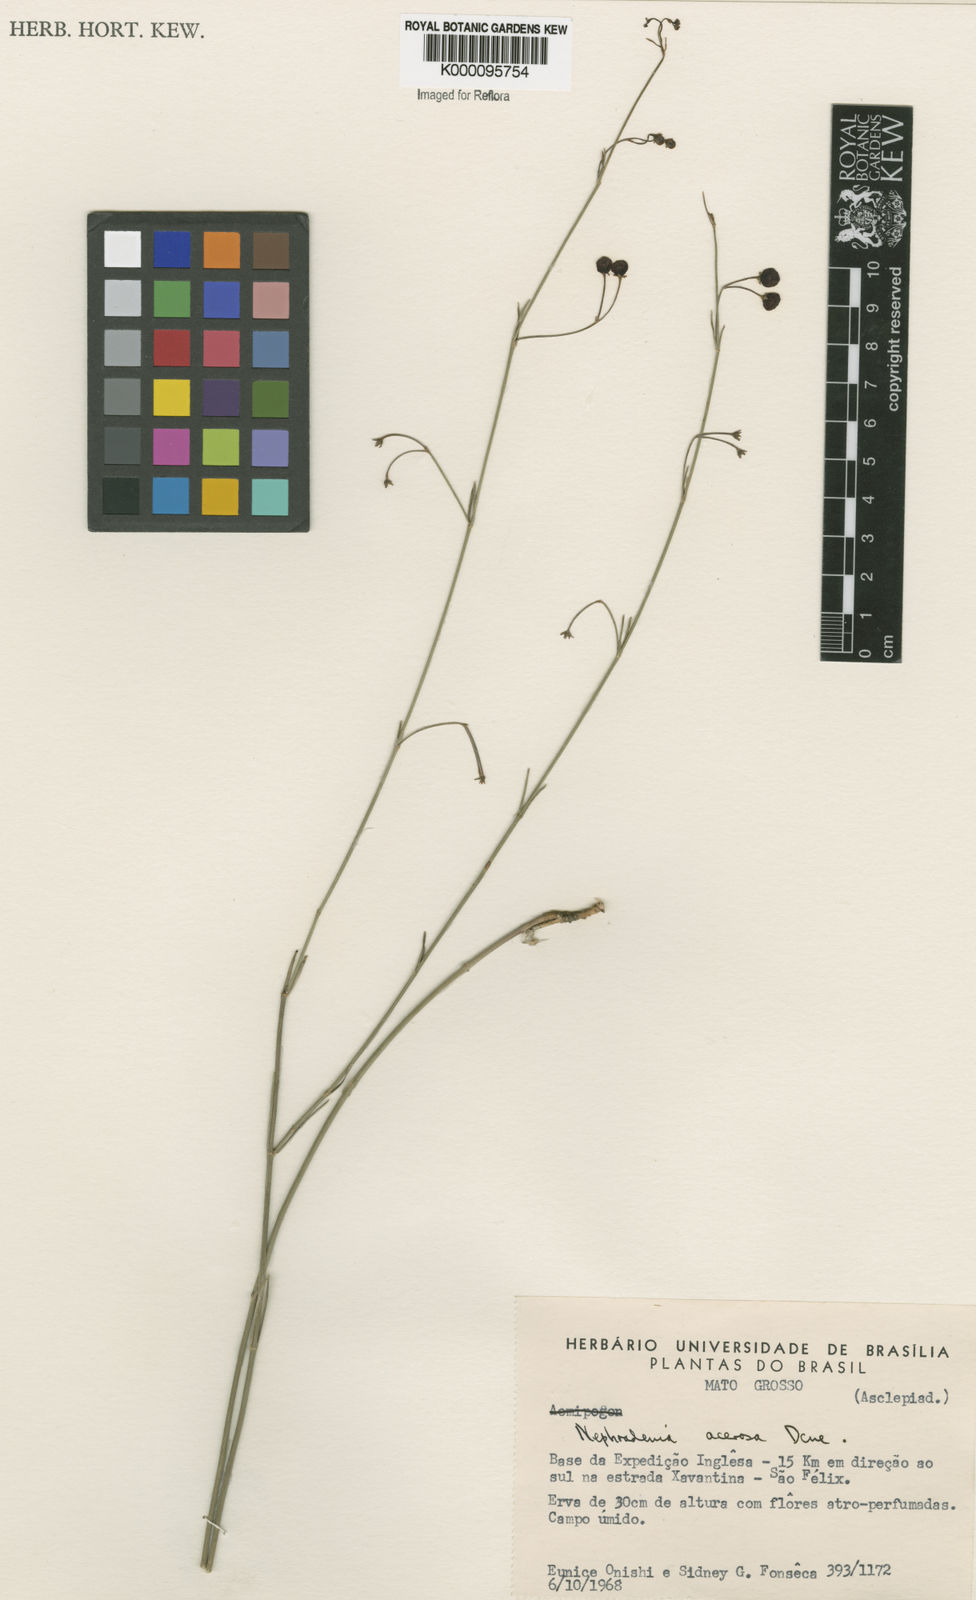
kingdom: Plantae
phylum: Tracheophyta
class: Magnoliopsida
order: Gentianales
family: Apocynaceae
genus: Nephradenia
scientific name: Nephradenia acerosa
